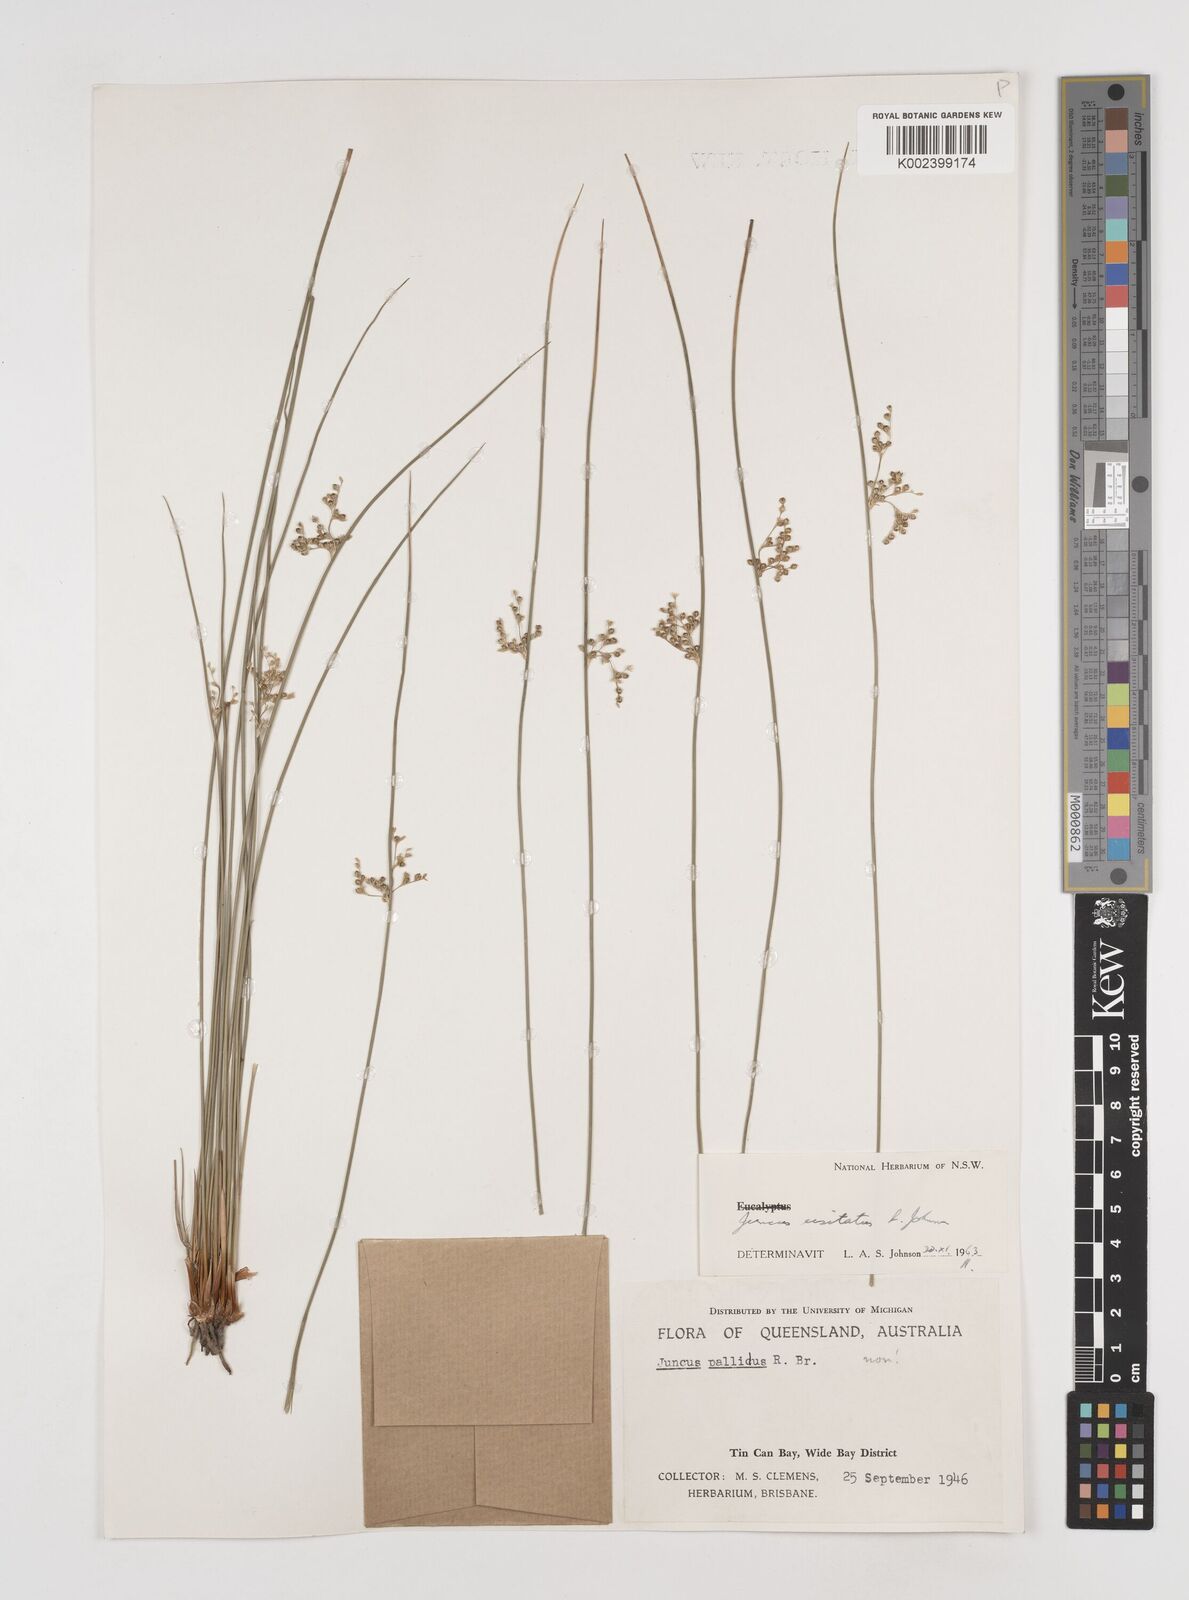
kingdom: Plantae
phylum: Tracheophyta
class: Liliopsida
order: Poales
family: Juncaceae
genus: Juncus
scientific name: Juncus usitatus
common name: Rush
